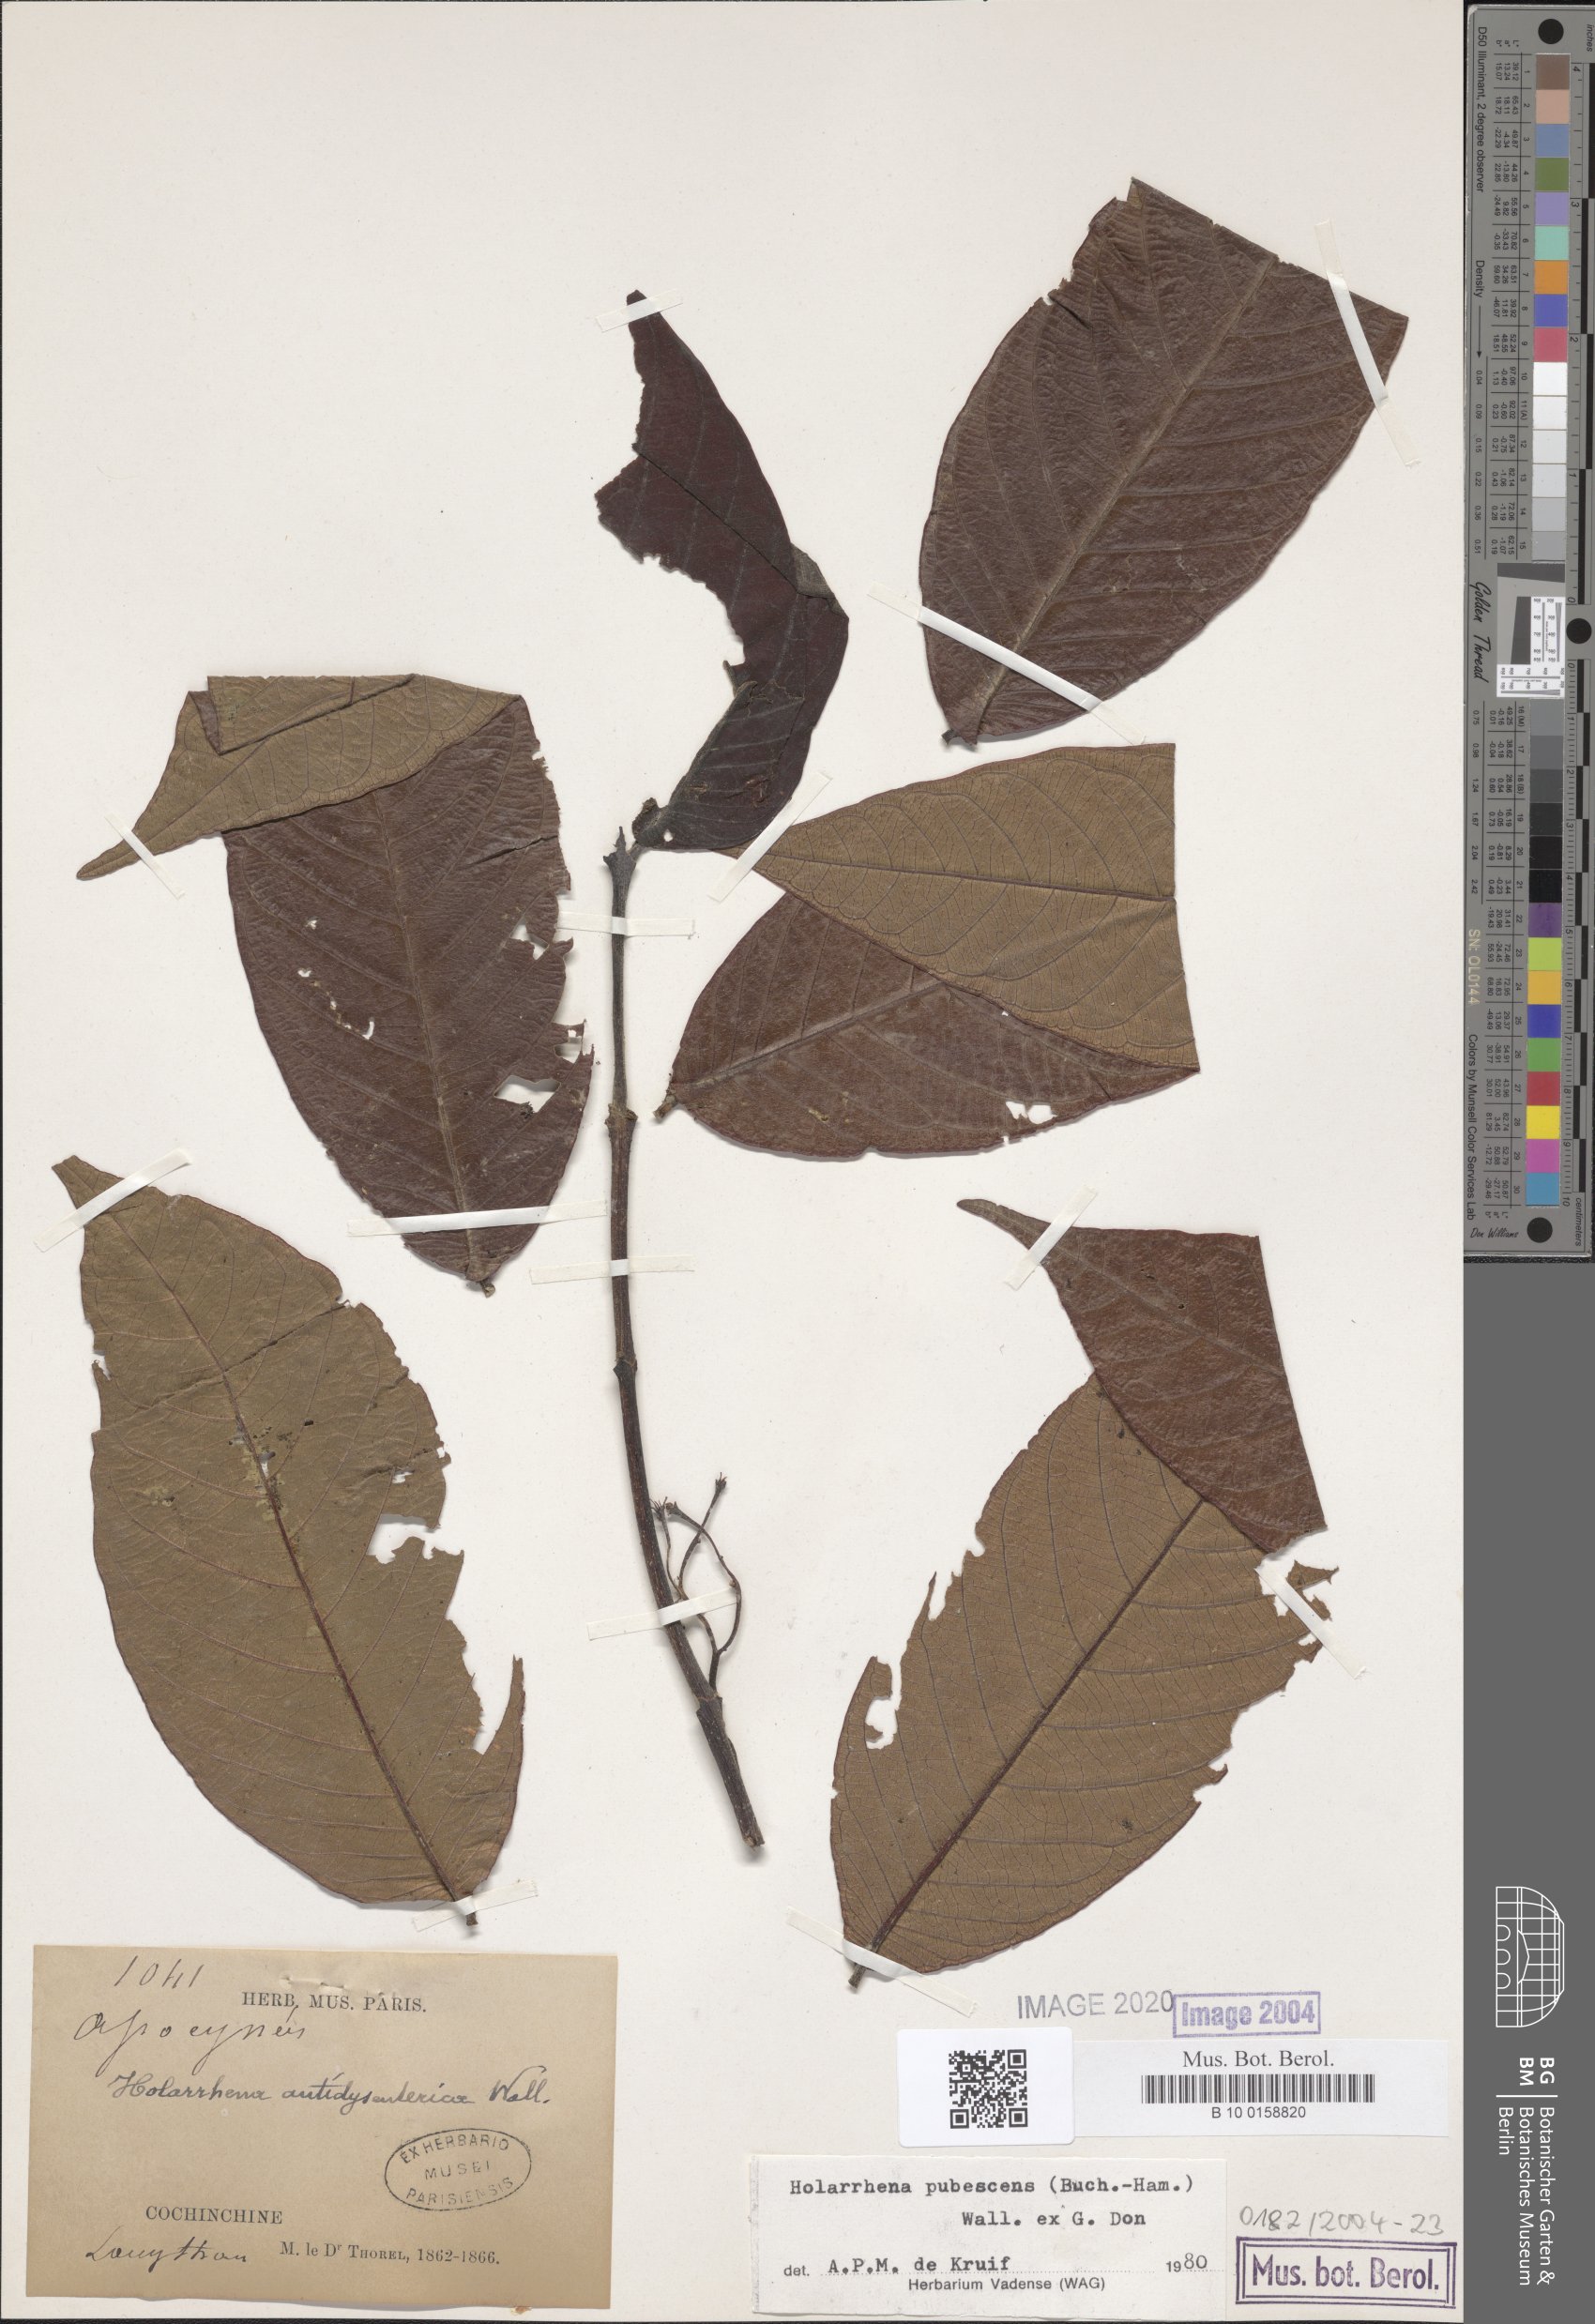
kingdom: Plantae
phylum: Tracheophyta
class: Magnoliopsida
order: Gentianales
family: Apocynaceae
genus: Holarrhena
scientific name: Holarrhena pubescens
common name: Bitter oleander
